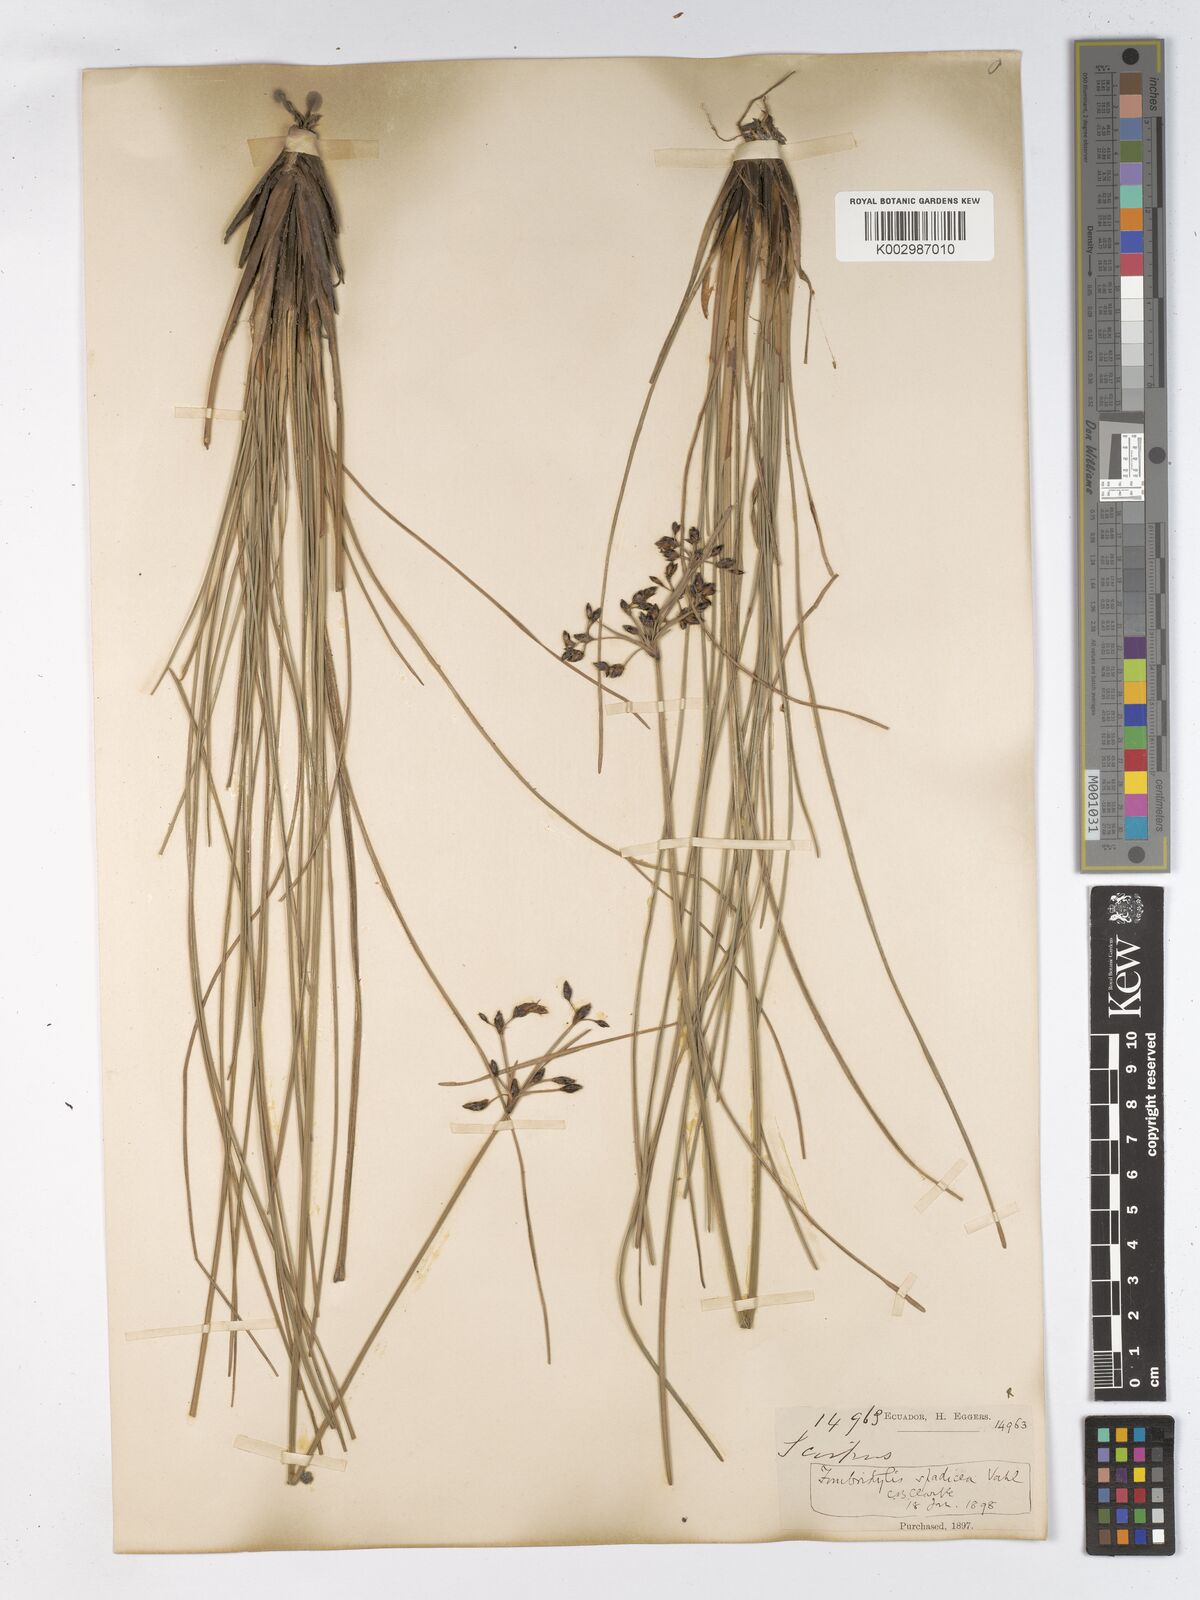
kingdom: Plantae
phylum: Tracheophyta
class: Liliopsida
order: Poales
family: Cyperaceae
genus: Fimbristylis
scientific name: Fimbristylis spadicea
